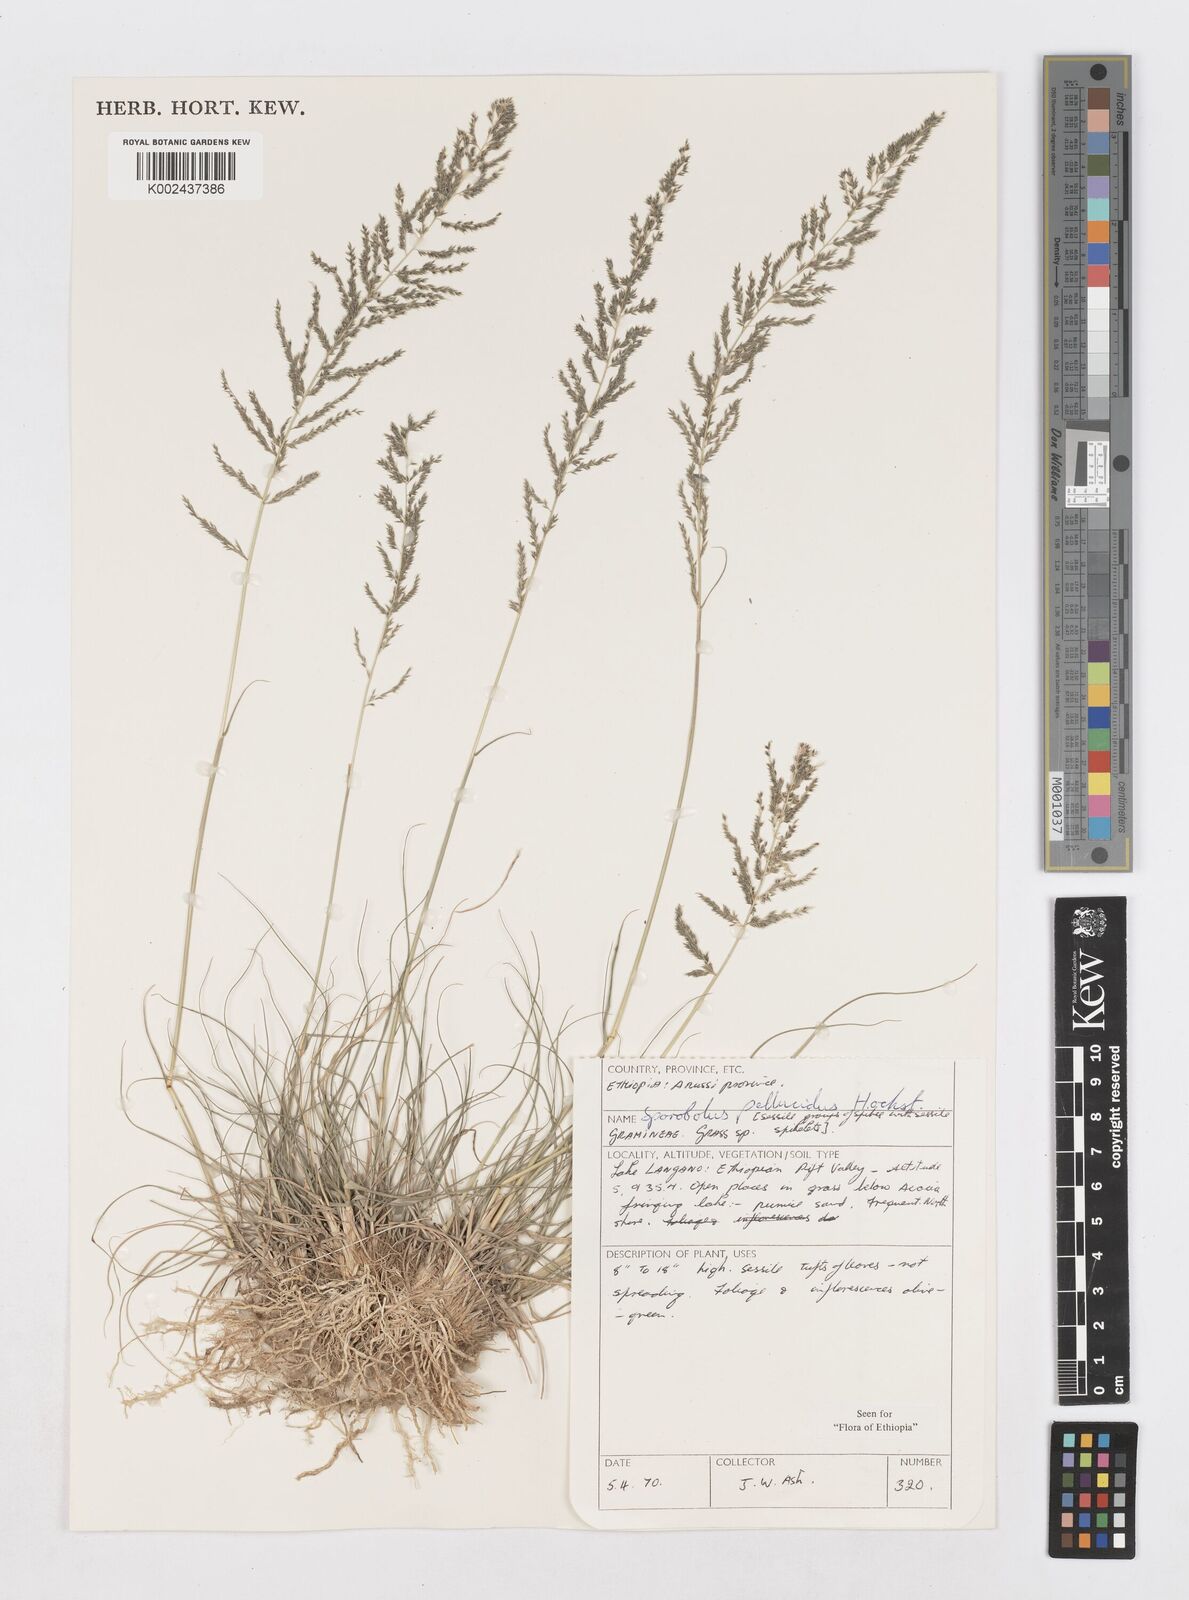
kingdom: Plantae
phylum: Tracheophyta
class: Liliopsida
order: Poales
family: Poaceae
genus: Sporobolus
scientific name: Sporobolus pellucidus
